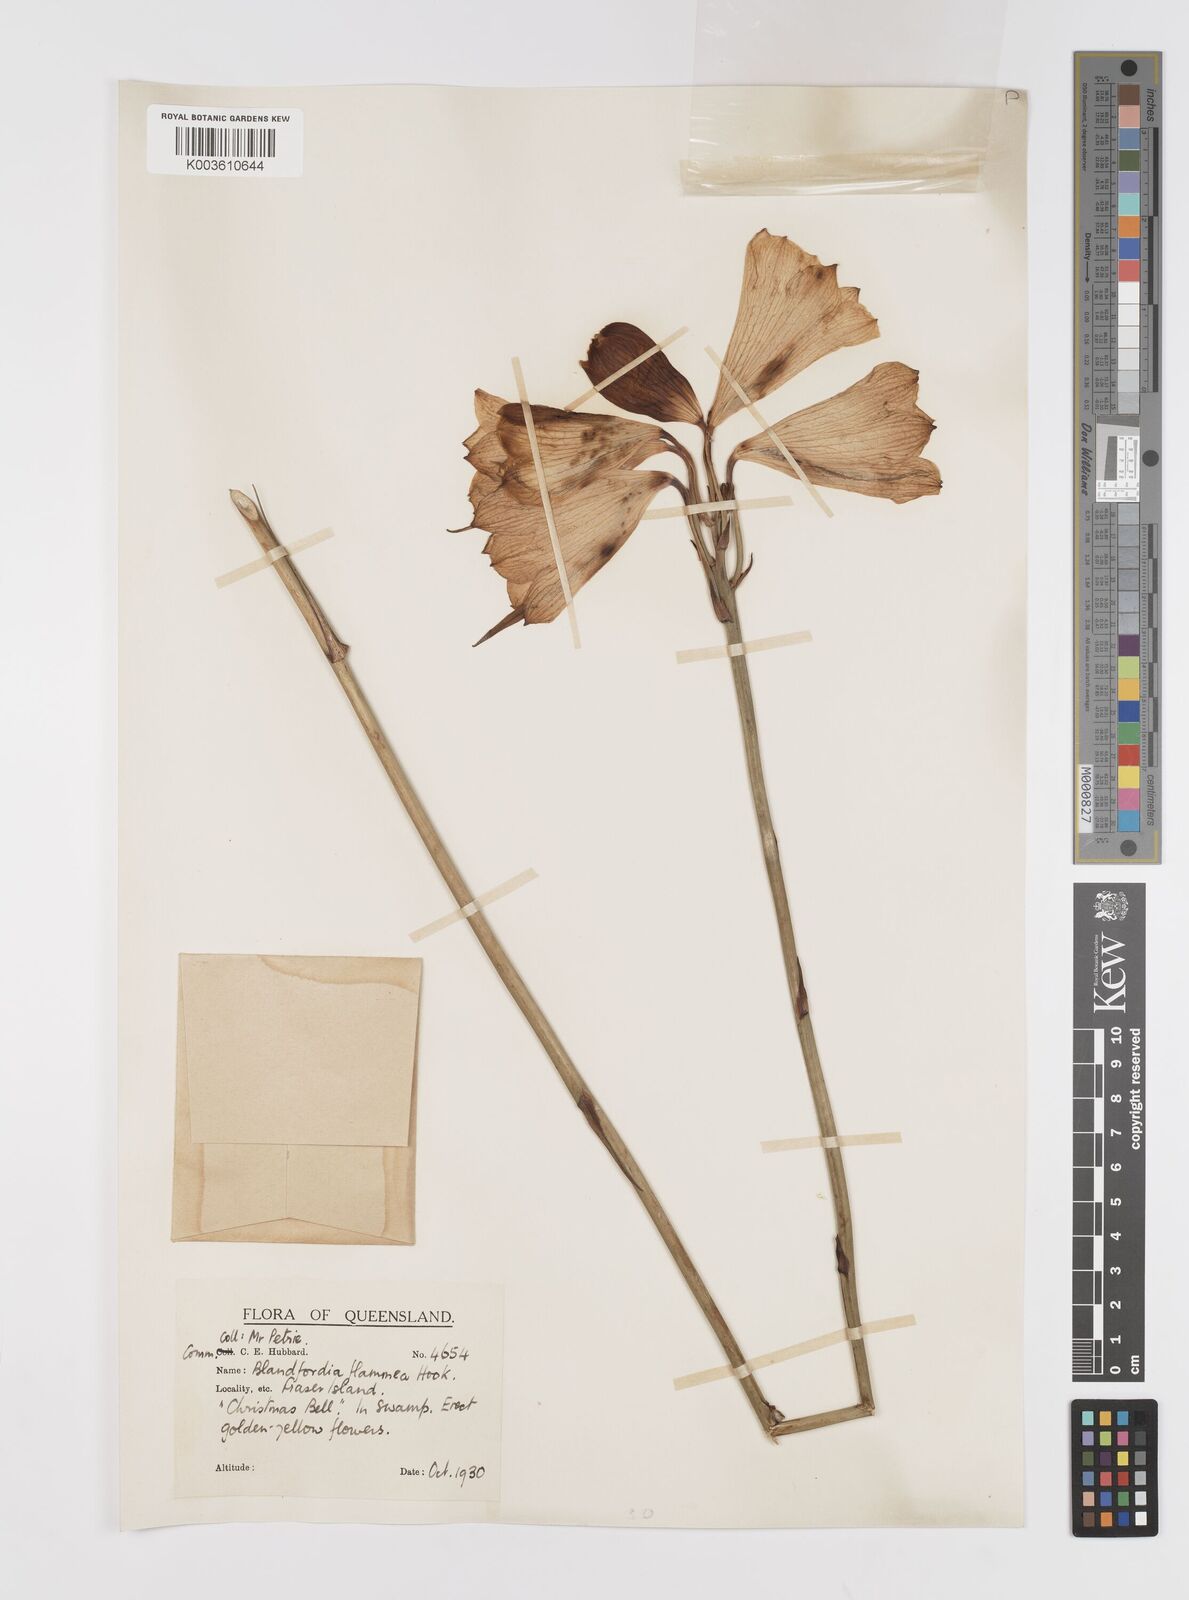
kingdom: Plantae
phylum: Tracheophyta
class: Liliopsida
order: Asparagales
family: Blandfordiaceae
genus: Blandfordia
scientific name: Blandfordia punicea
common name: Tasmanian christmas-bell
